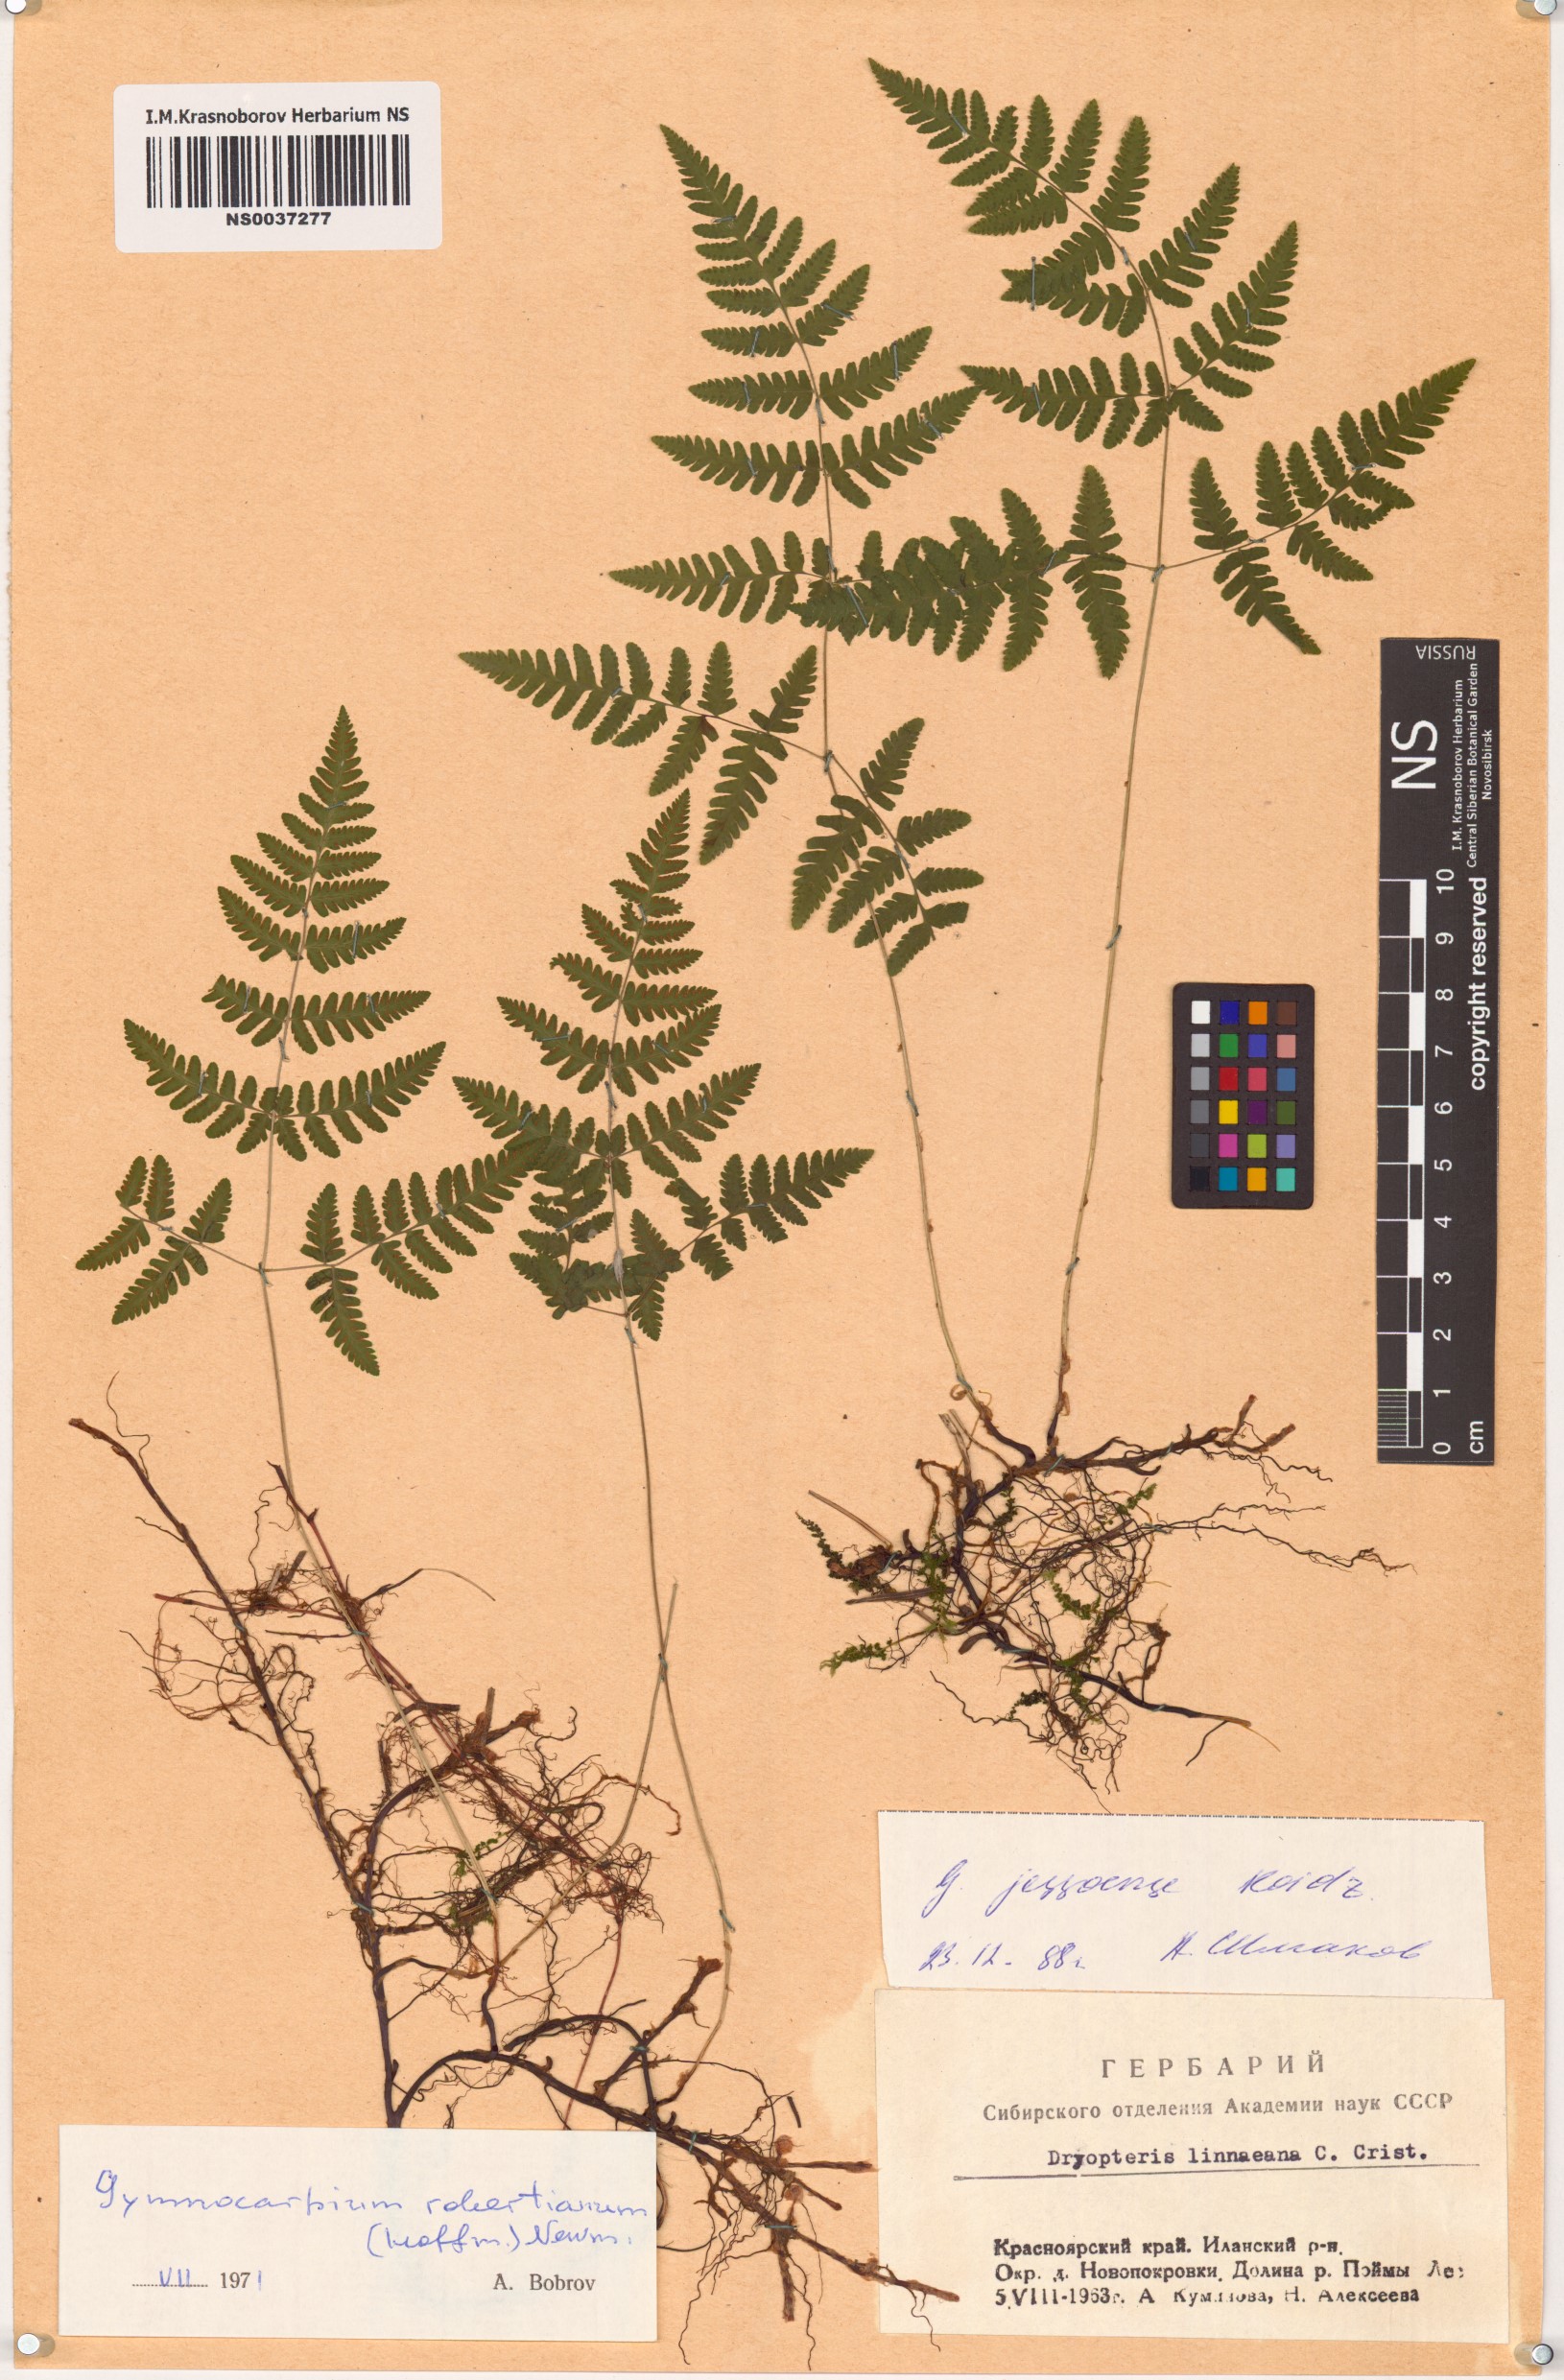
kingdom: Plantae
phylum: Tracheophyta
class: Polypodiopsida
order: Polypodiales
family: Cystopteridaceae
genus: Gymnocarpium
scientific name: Gymnocarpium jessoense
